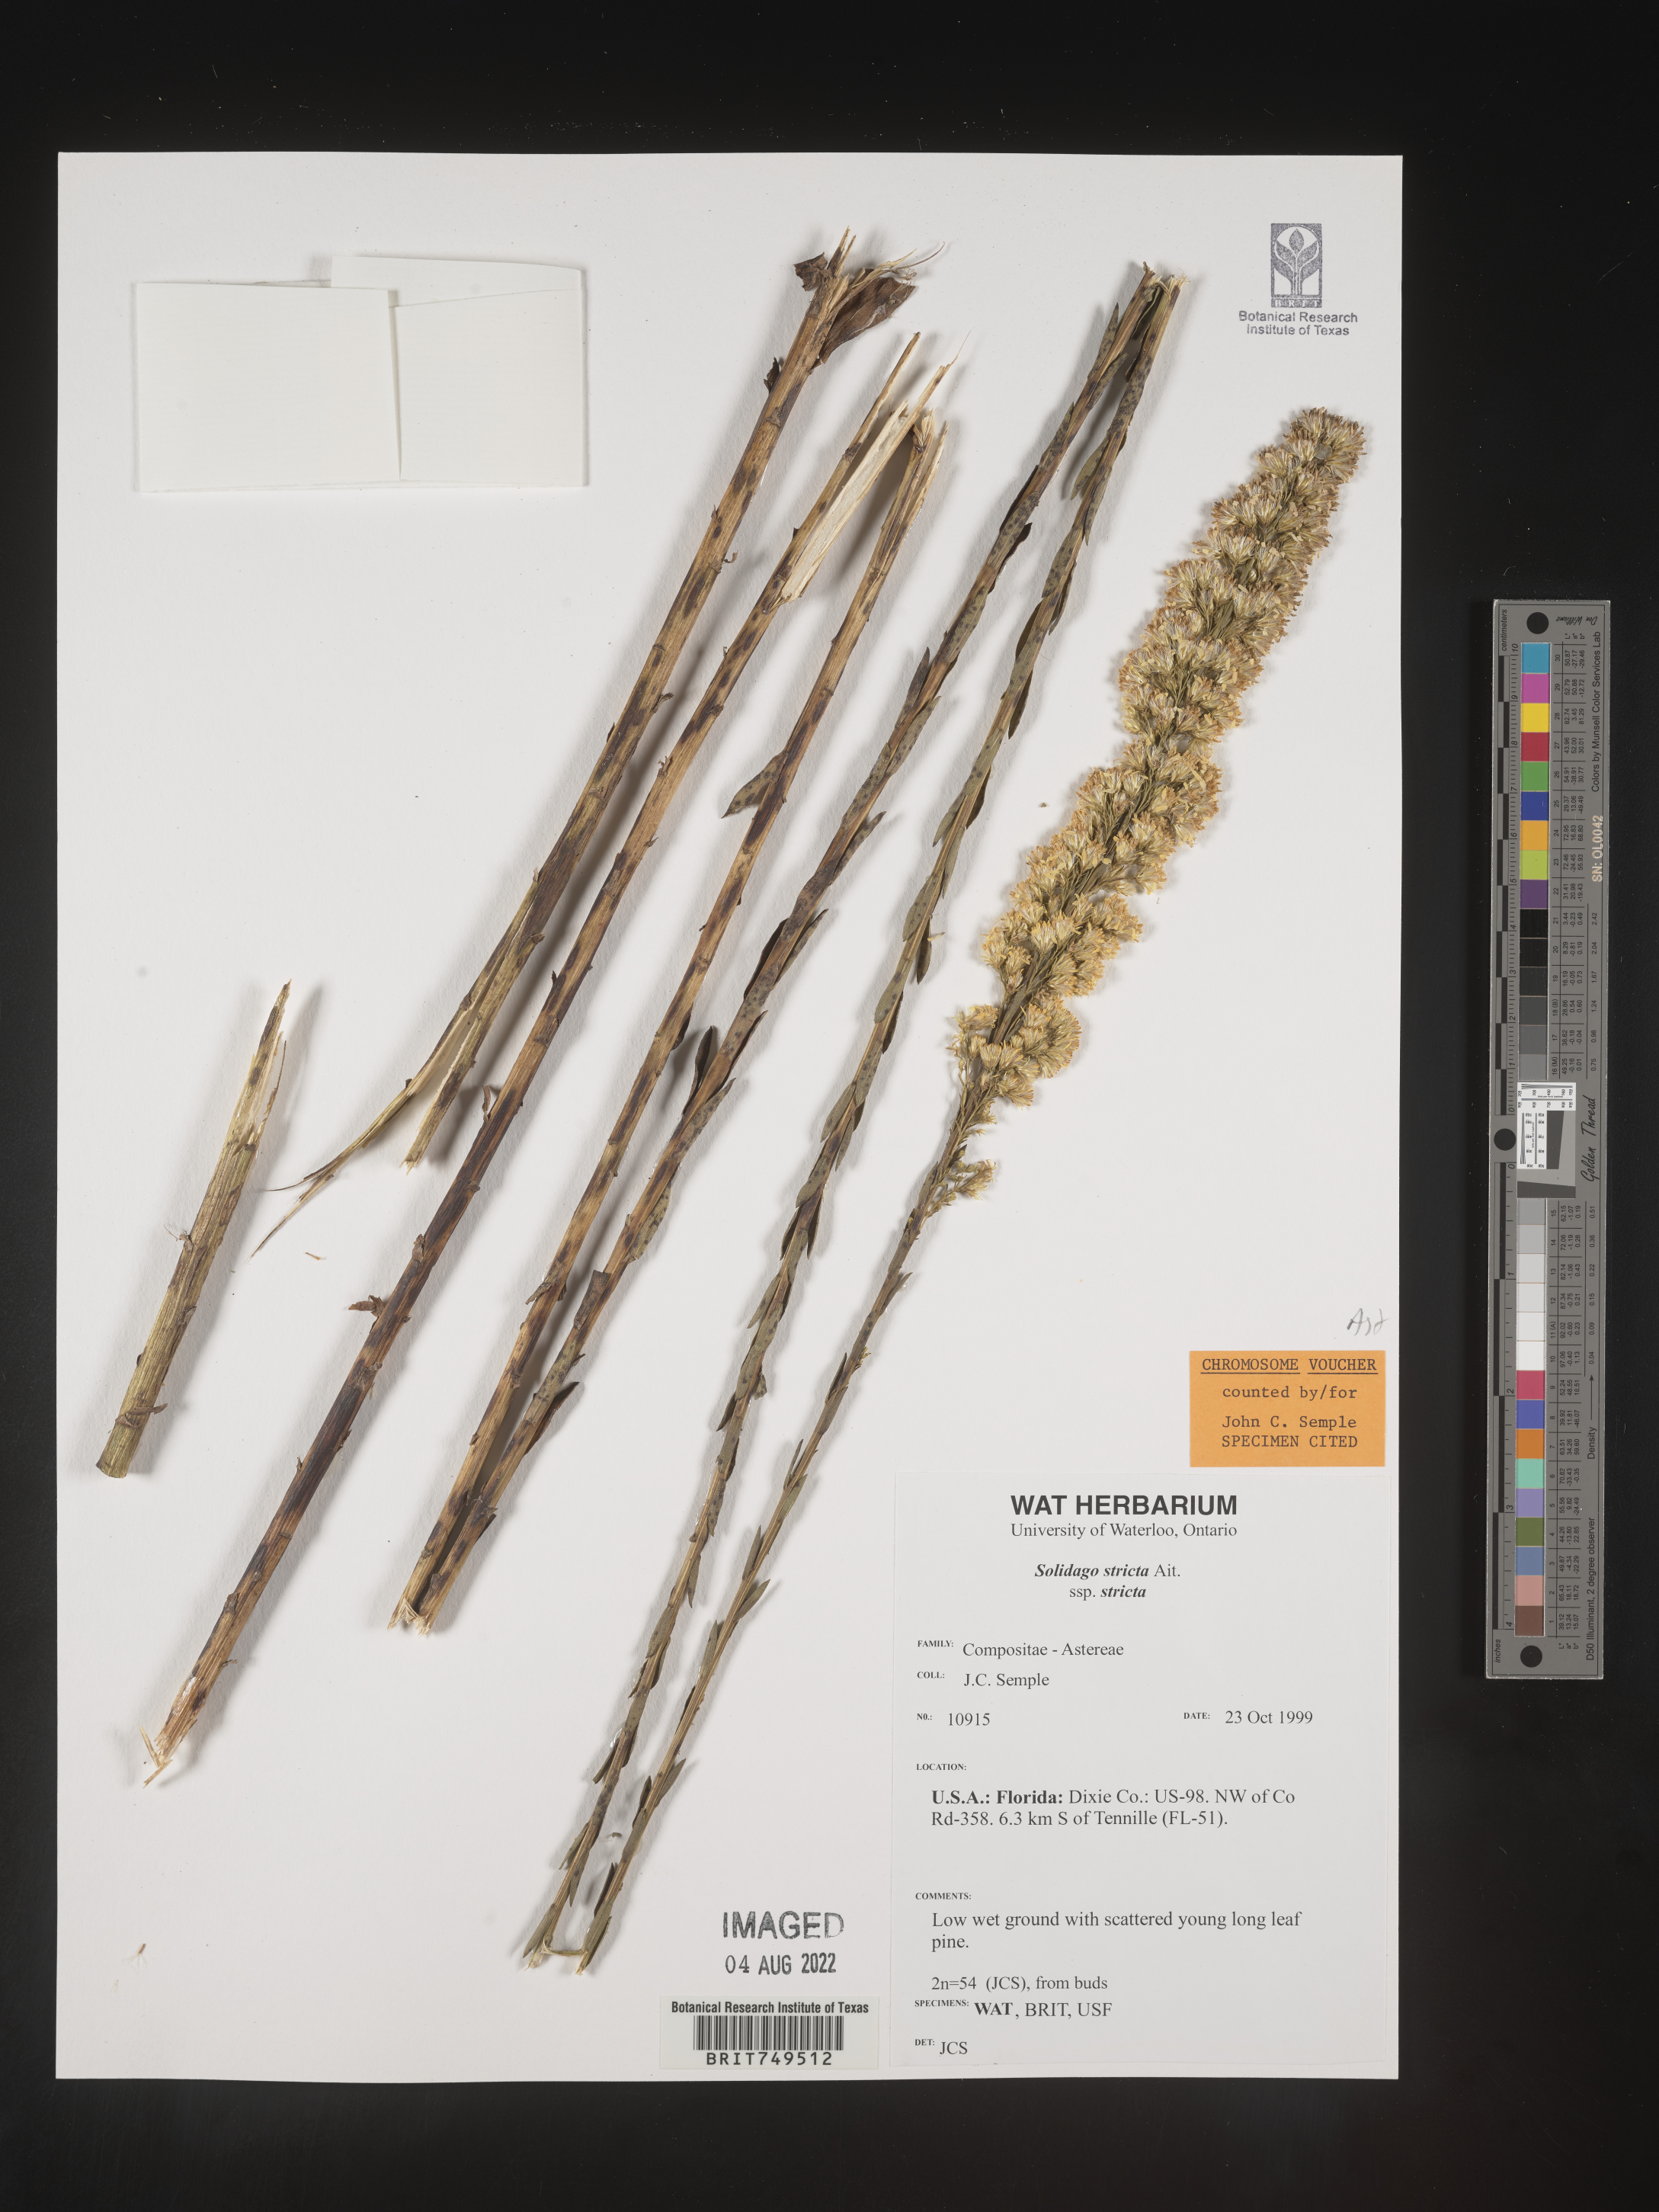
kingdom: Plantae
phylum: Tracheophyta
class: Magnoliopsida
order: Asterales
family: Asteraceae
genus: Solidago
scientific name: Solidago stricta
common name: Pine barren bog goldenrod
